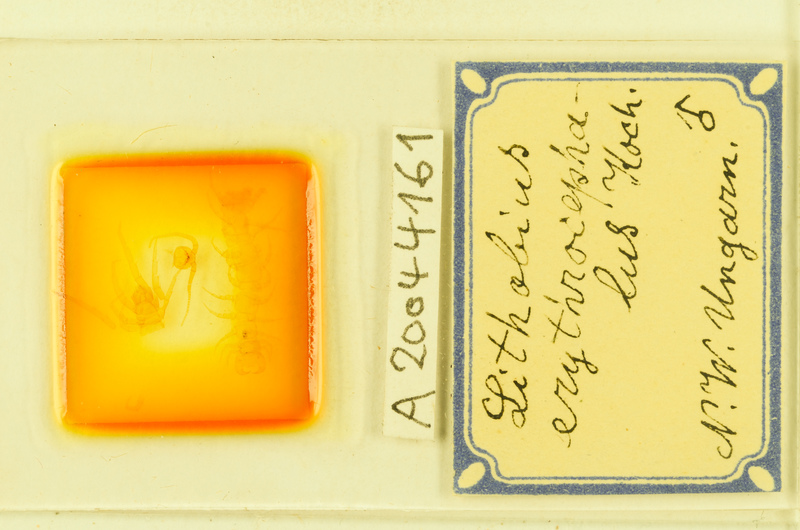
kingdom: Animalia
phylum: Arthropoda
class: Chilopoda
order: Lithobiomorpha
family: Lithobiidae
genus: Lithobius
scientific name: Lithobius erythrocephalus
